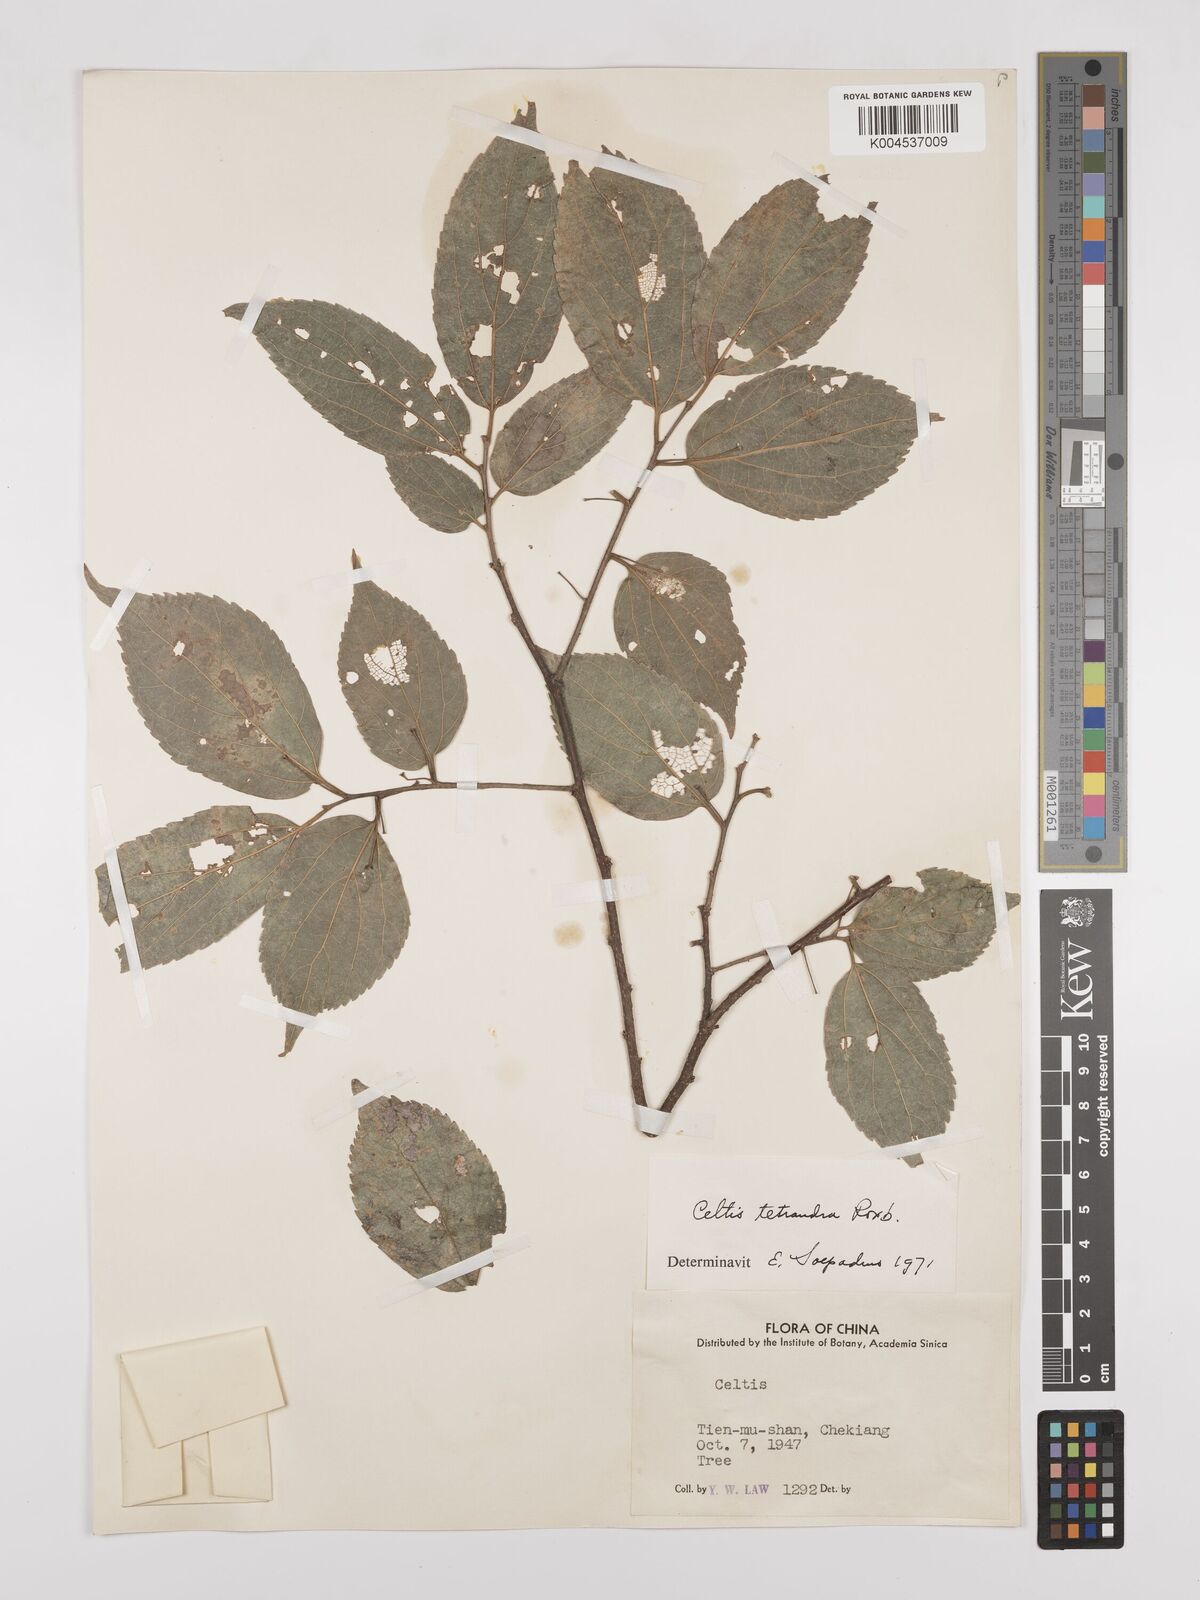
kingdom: Plantae
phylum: Tracheophyta
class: Magnoliopsida
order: Rosales
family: Cannabaceae
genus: Celtis
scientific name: Celtis tetrandra
